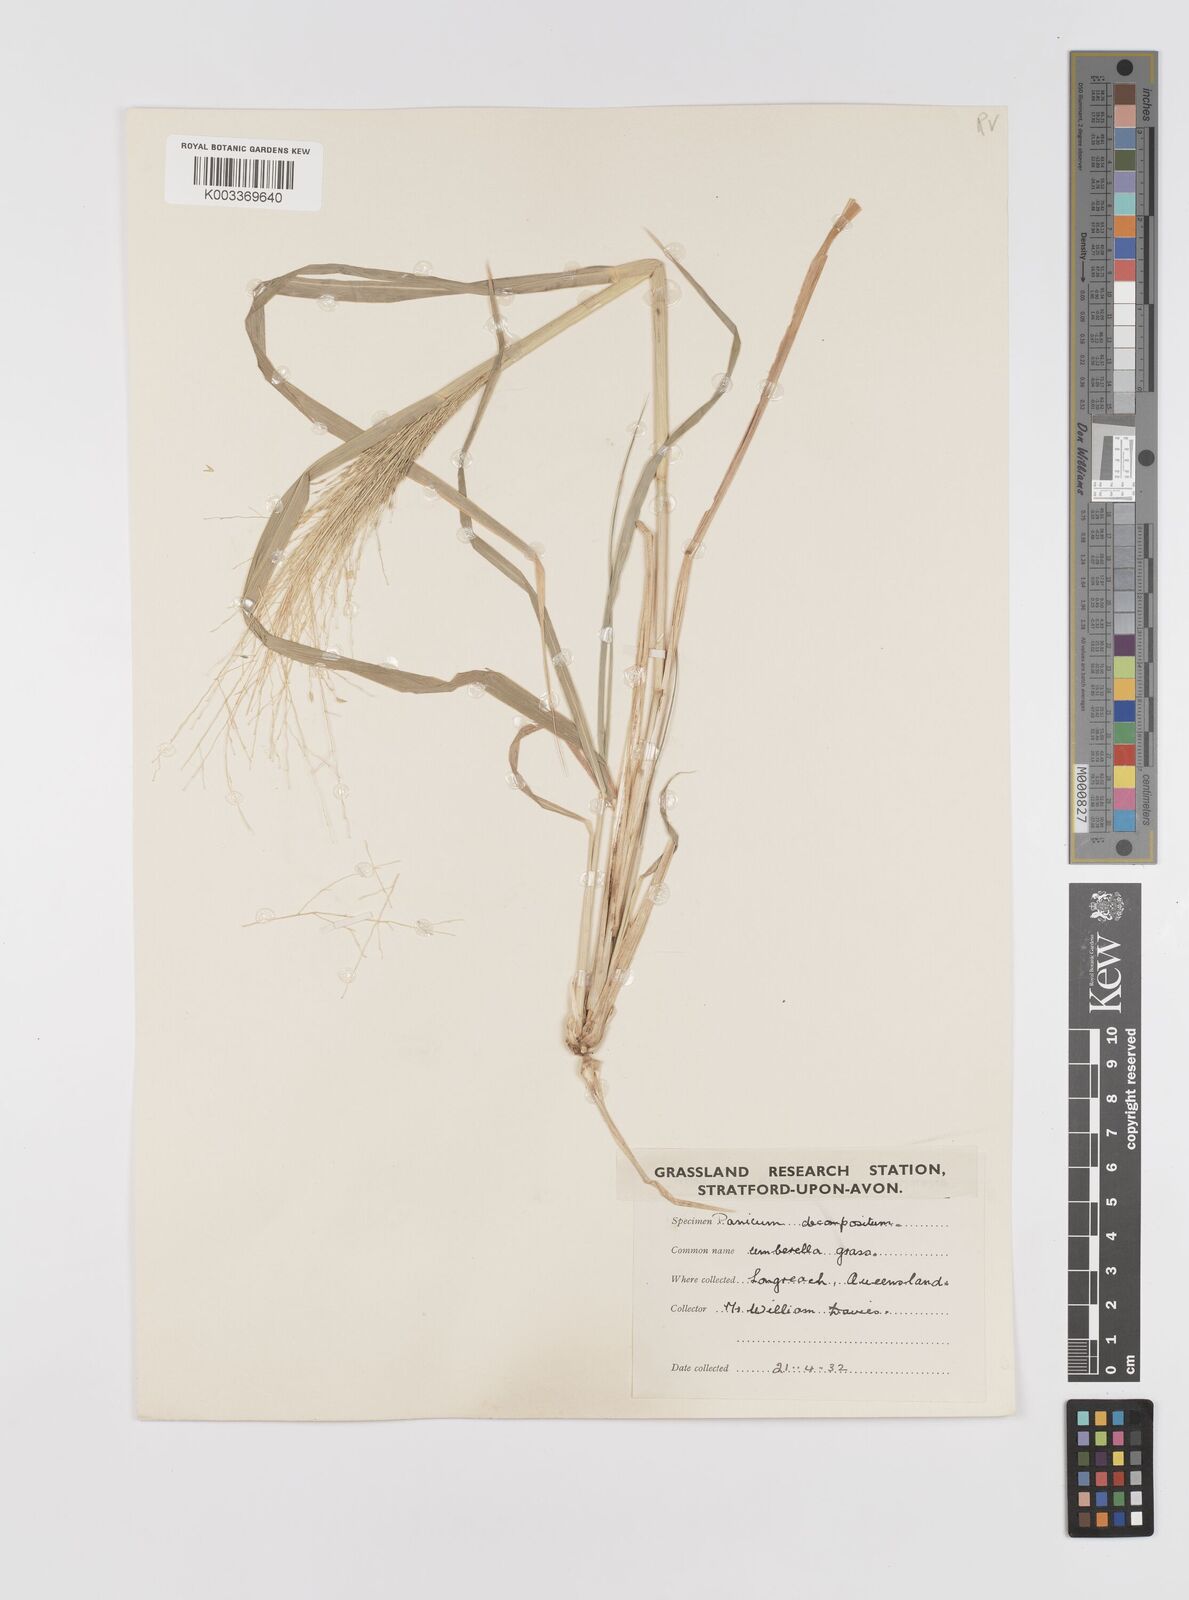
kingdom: Plantae
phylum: Tracheophyta
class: Liliopsida
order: Poales
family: Poaceae
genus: Panicum
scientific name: Panicum decompositum
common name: Australian millet
